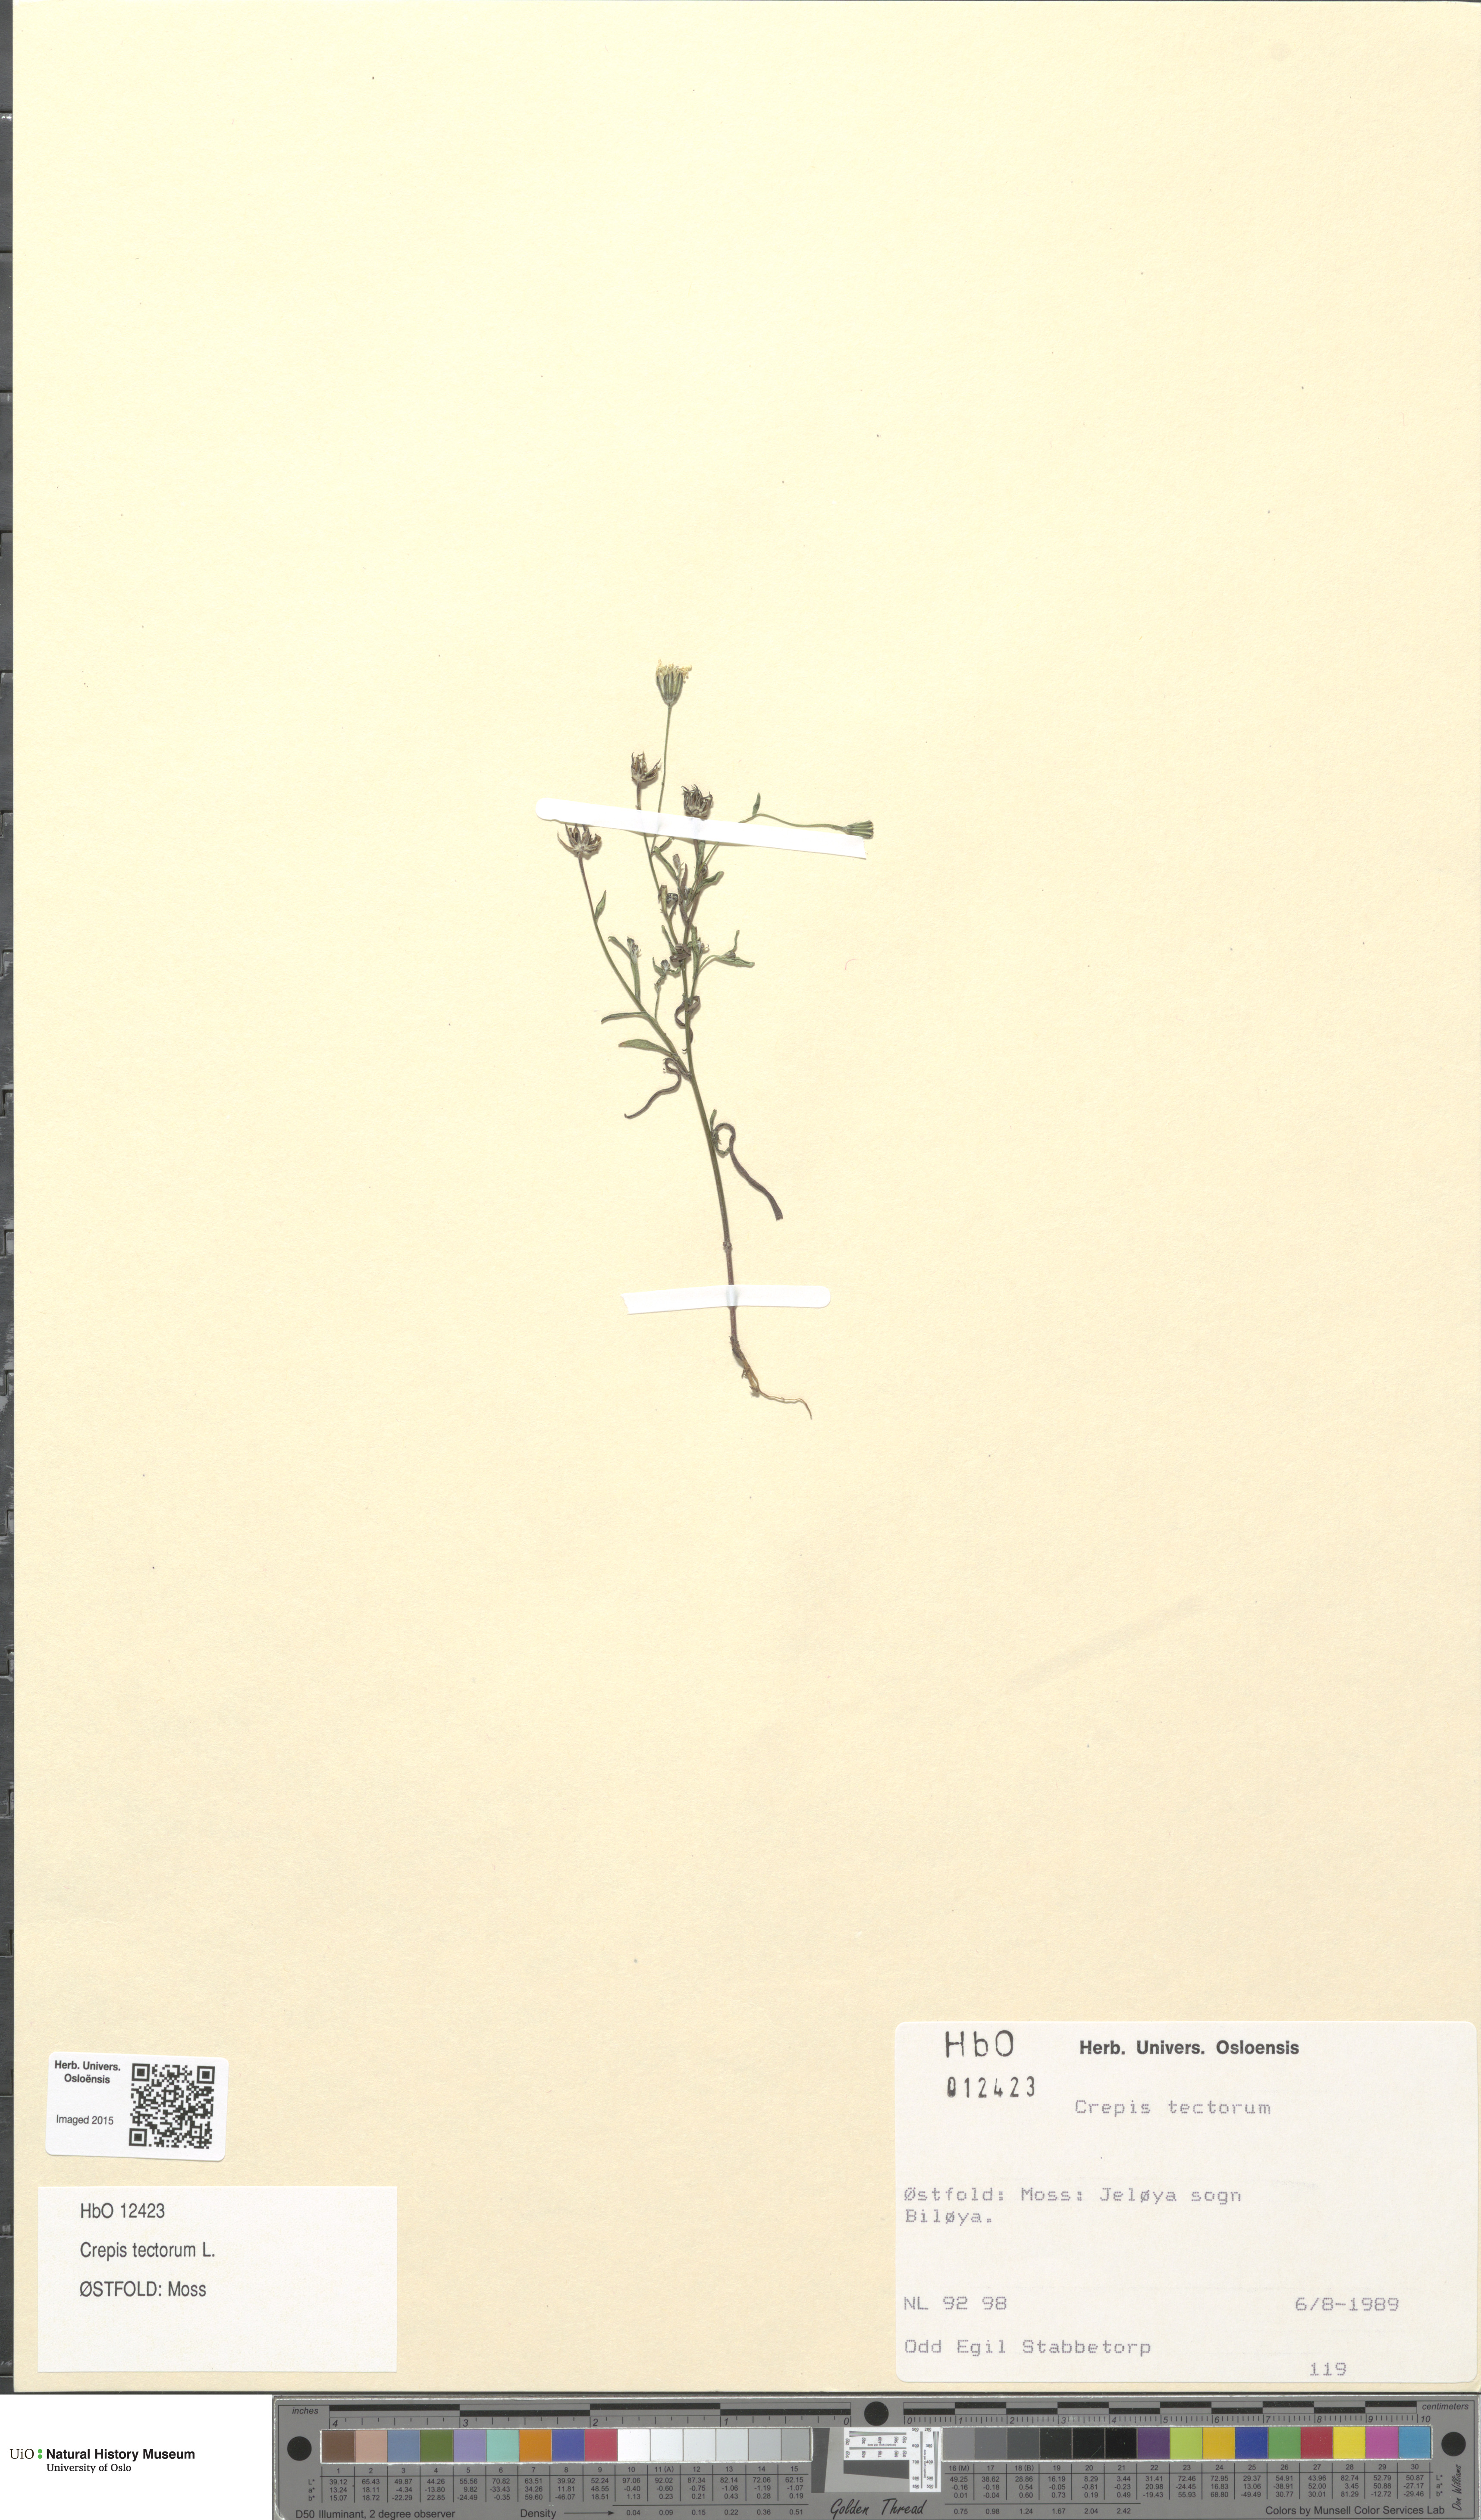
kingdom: Plantae
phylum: Tracheophyta
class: Magnoliopsida
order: Asterales
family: Asteraceae
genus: Crepis
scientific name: Crepis tectorum
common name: Narrow-leaved hawk's-beard
